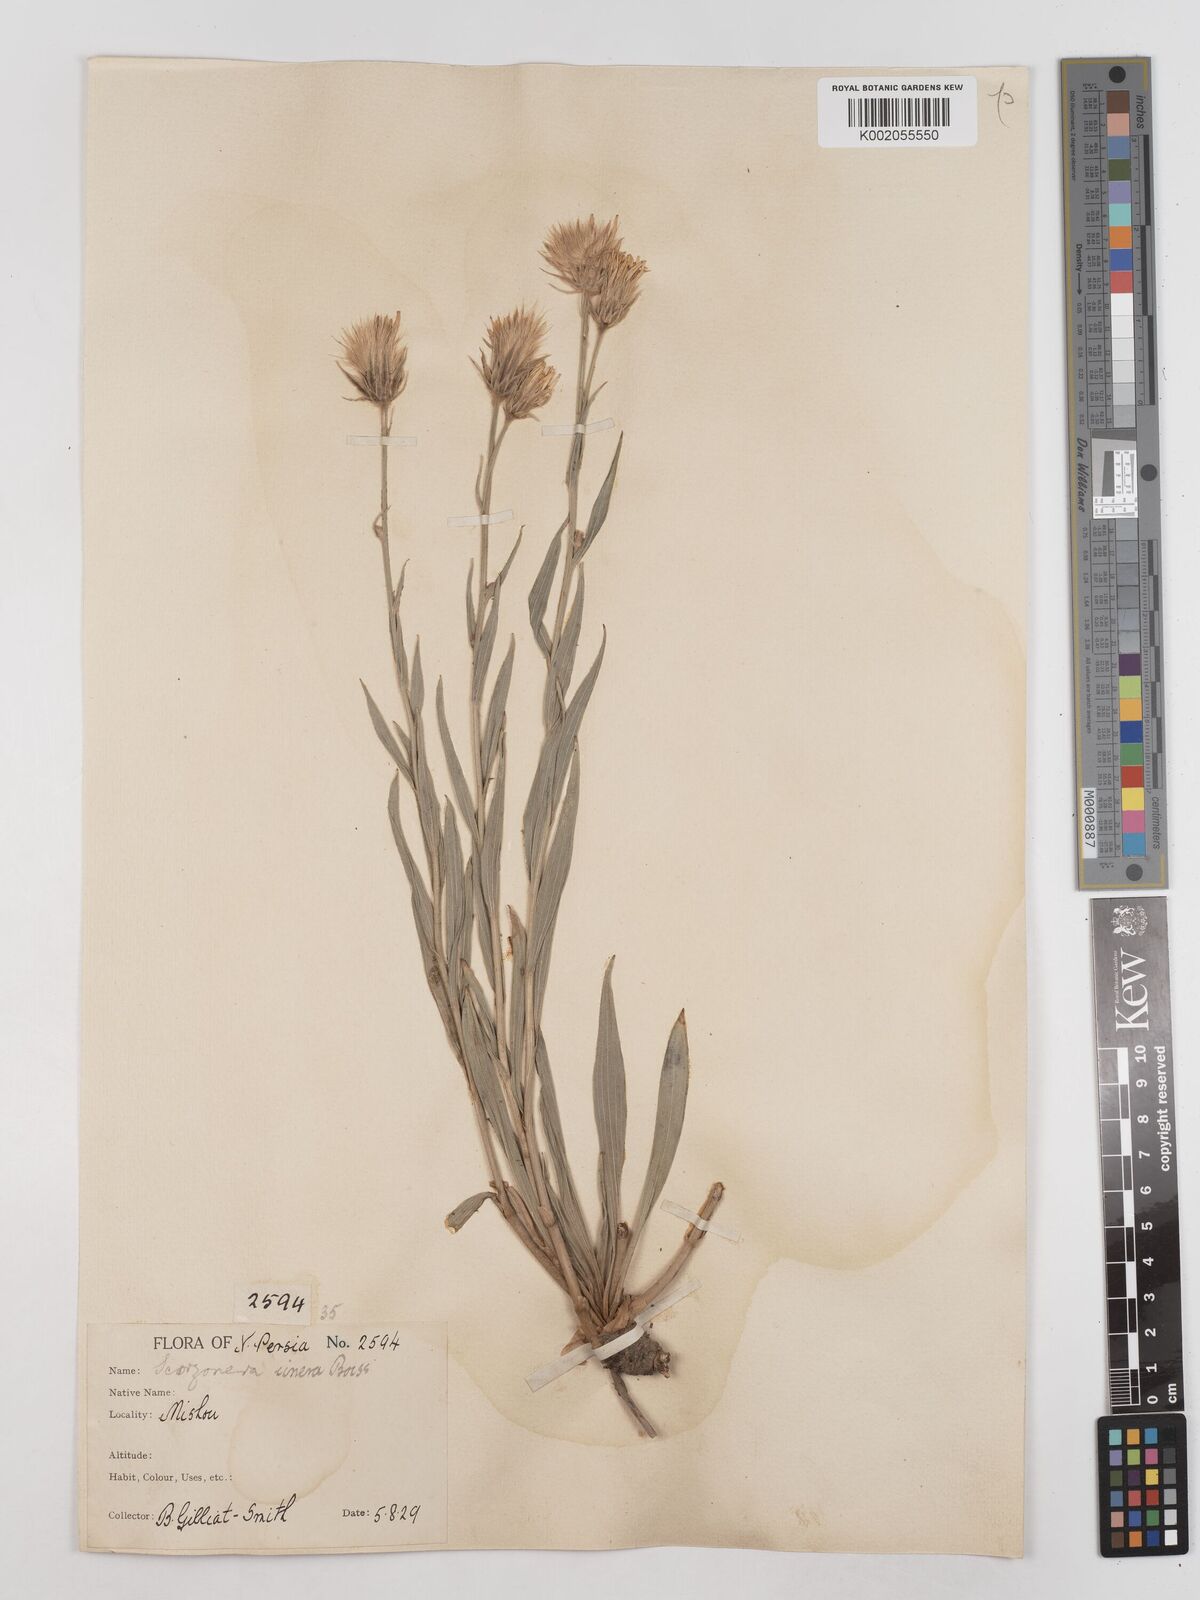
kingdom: Plantae
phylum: Tracheophyta
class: Magnoliopsida
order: Asterales
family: Asteraceae
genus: Cigdemia
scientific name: Cigdemia cinerea
